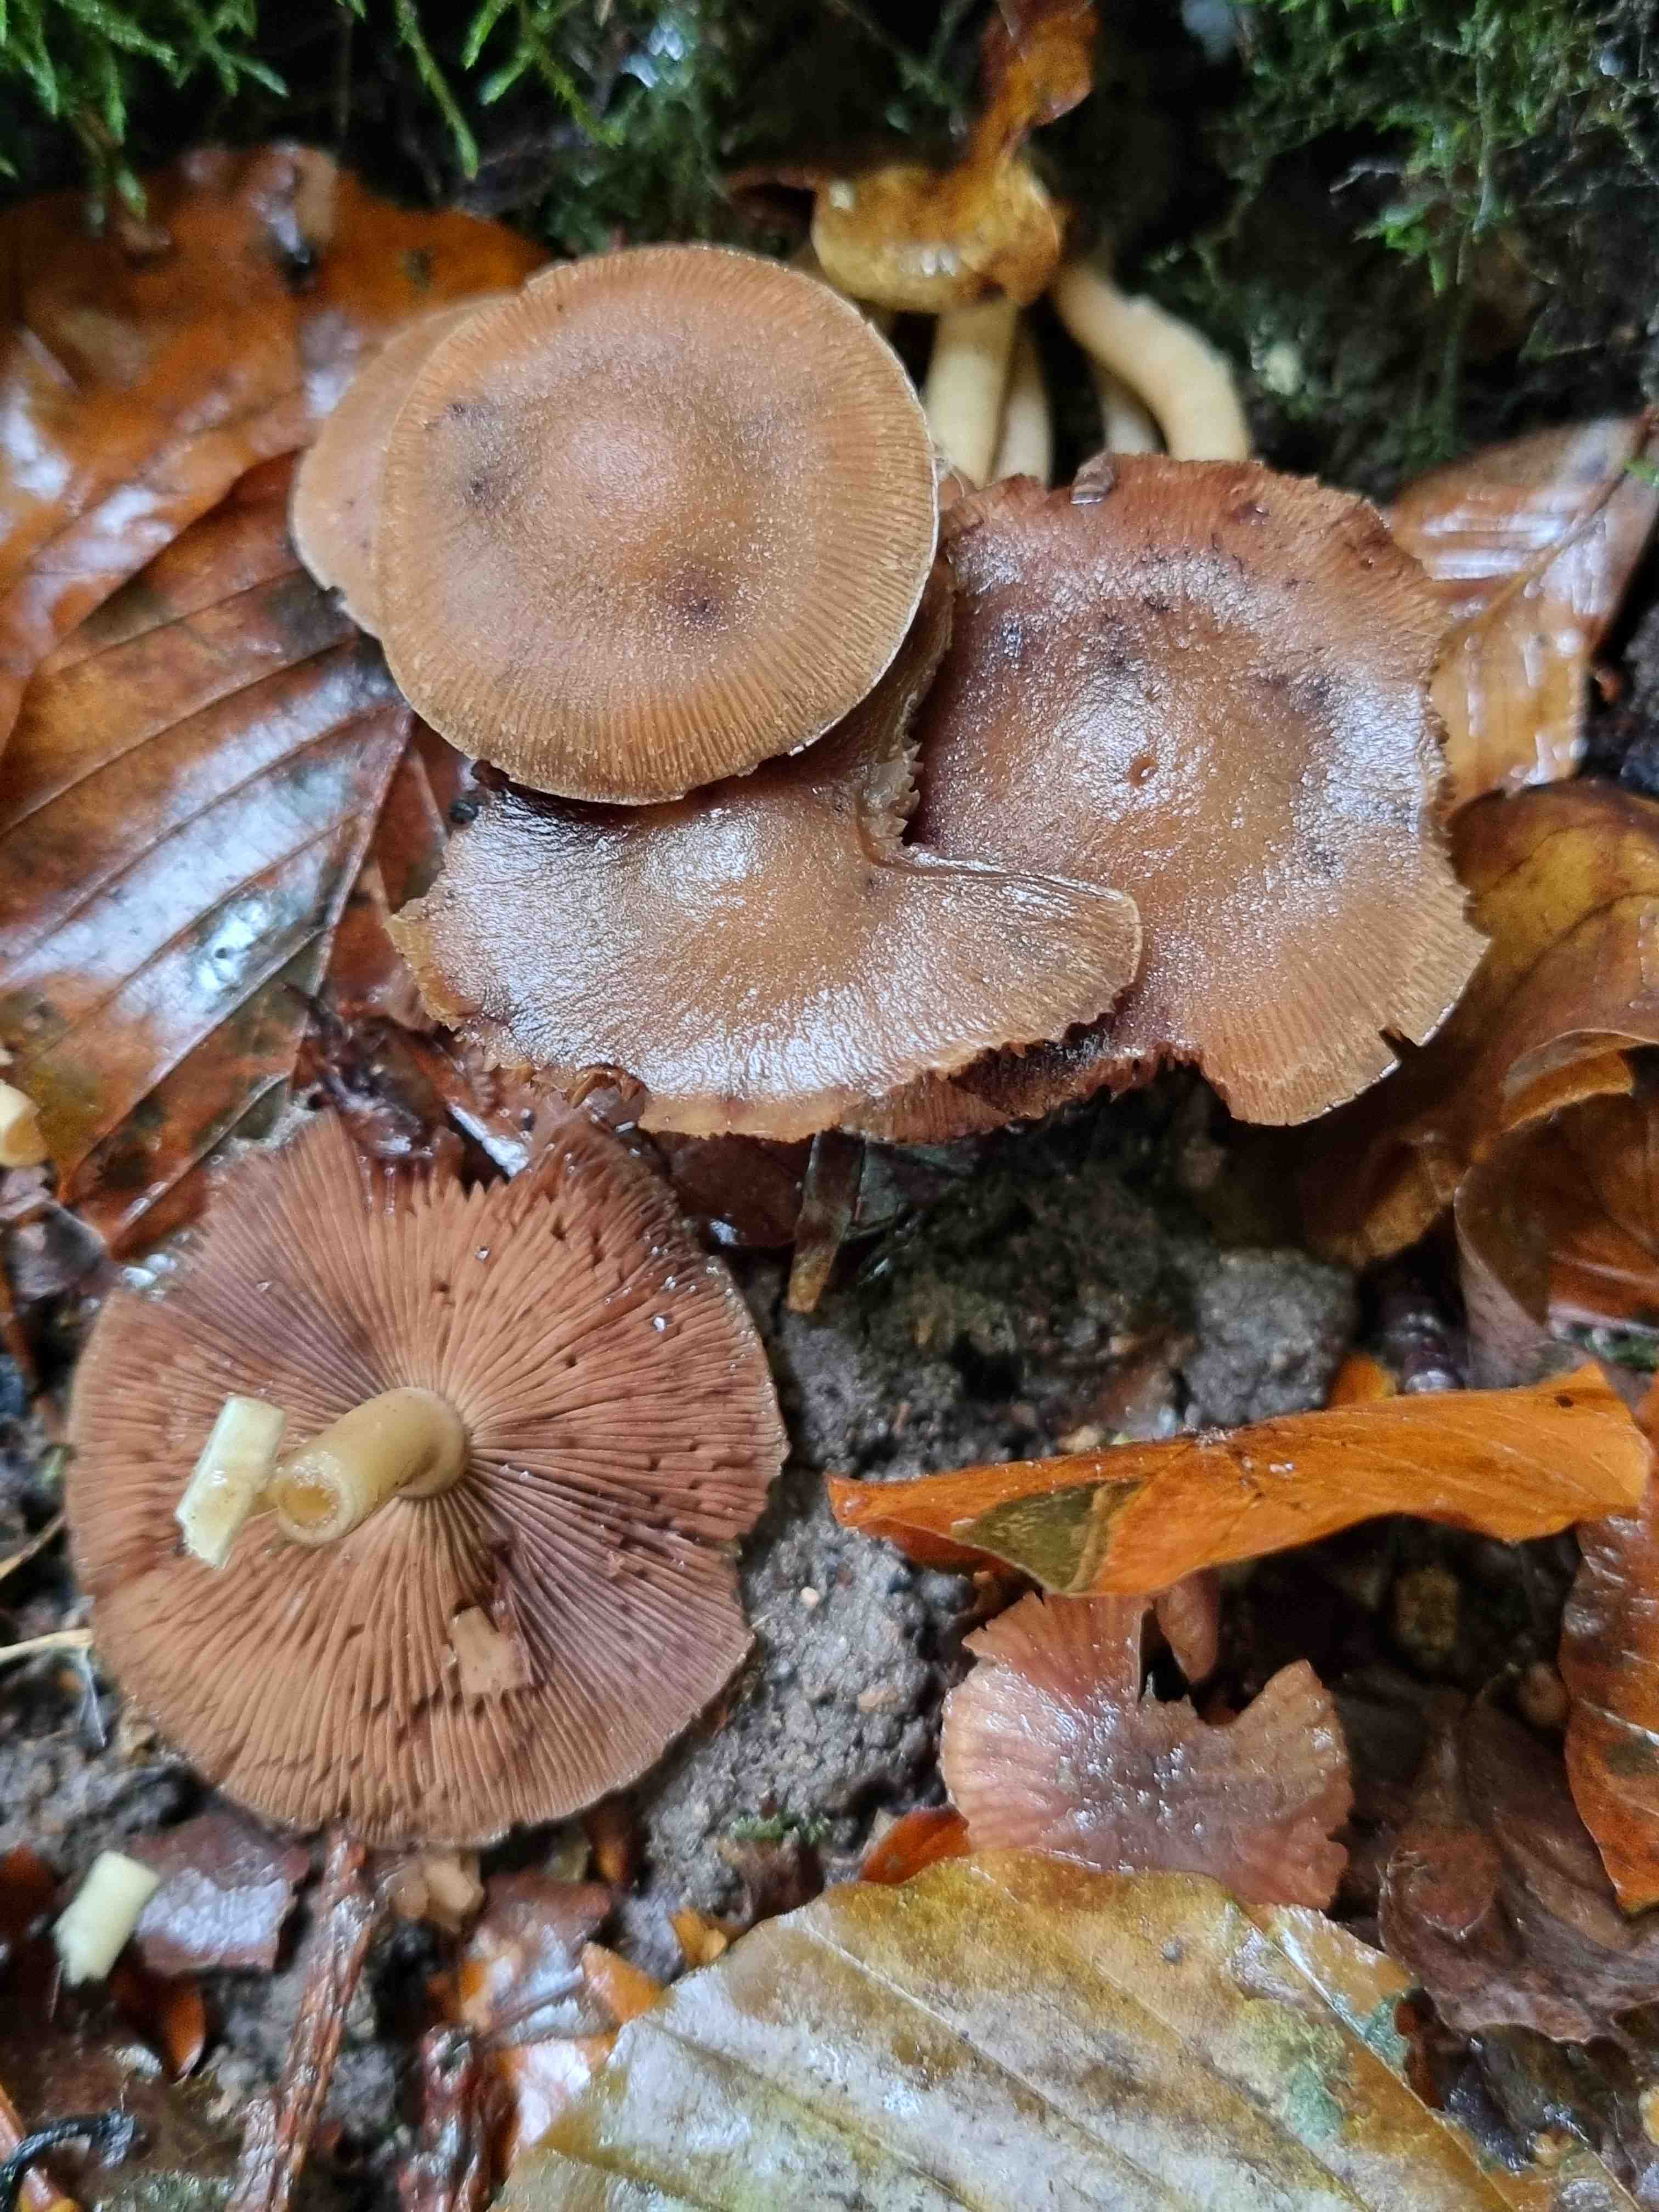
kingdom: Fungi
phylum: Basidiomycota
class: Agaricomycetes
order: Agaricales
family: Psathyrellaceae
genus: Psathyrella
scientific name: Psathyrella
